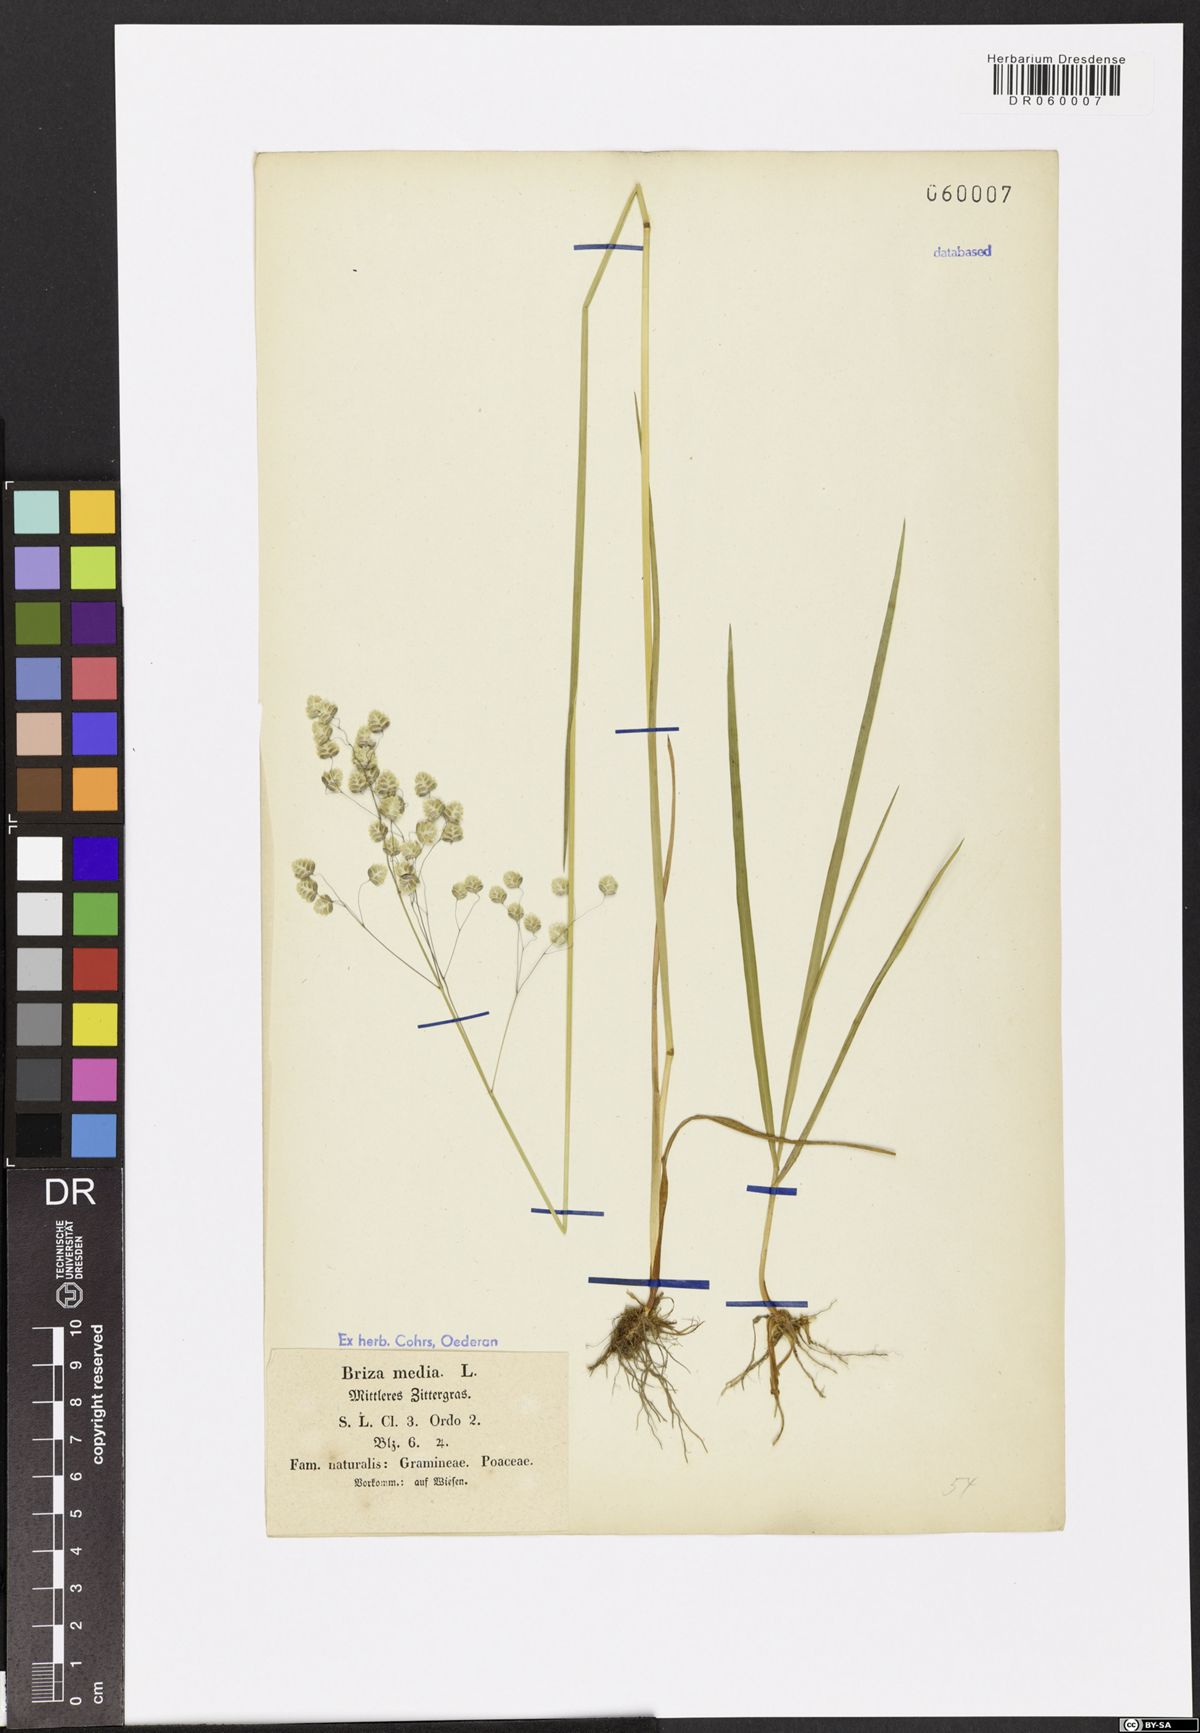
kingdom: Plantae
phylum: Tracheophyta
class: Liliopsida
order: Poales
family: Poaceae
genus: Briza
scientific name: Briza media
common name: Quaking grass
